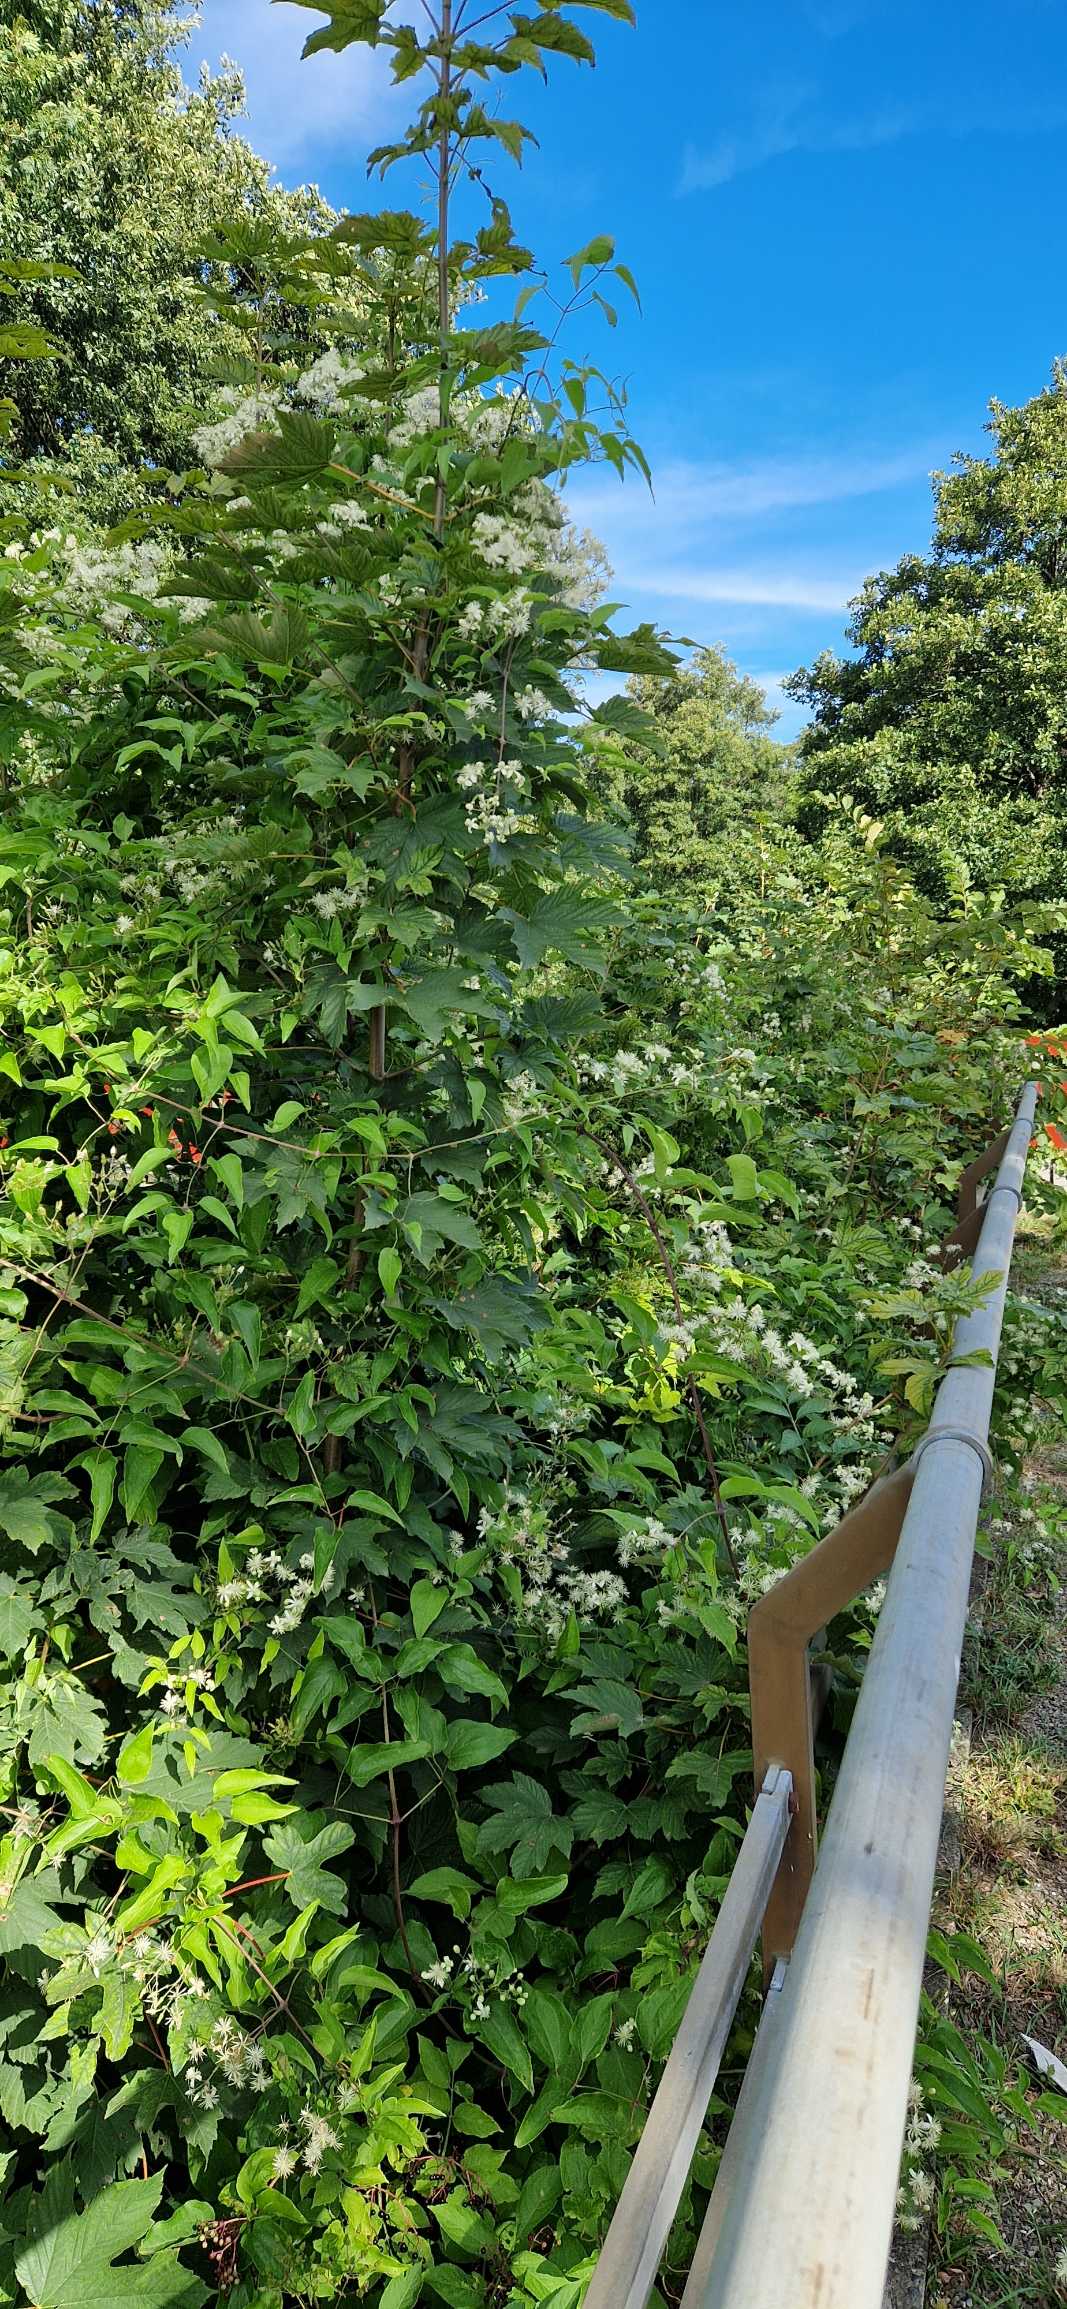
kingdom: Plantae
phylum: Tracheophyta
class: Magnoliopsida
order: Ranunculales
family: Ranunculaceae
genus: Clematis
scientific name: Clematis vitalba
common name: Skovranke
